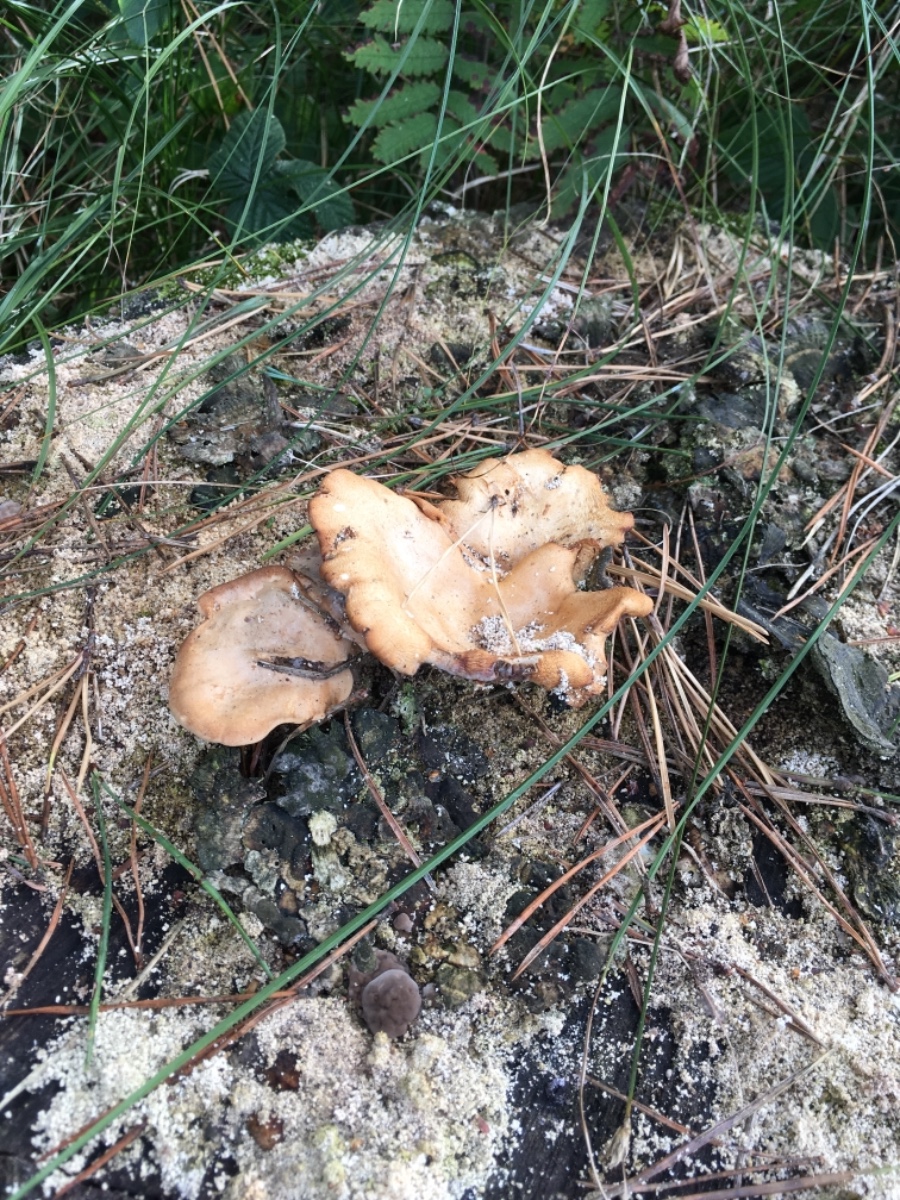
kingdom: Fungi
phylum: Basidiomycota
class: Agaricomycetes
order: Polyporales
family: Panaceae
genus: Panus
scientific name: Panus conchatus
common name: filtstokket læderhat
